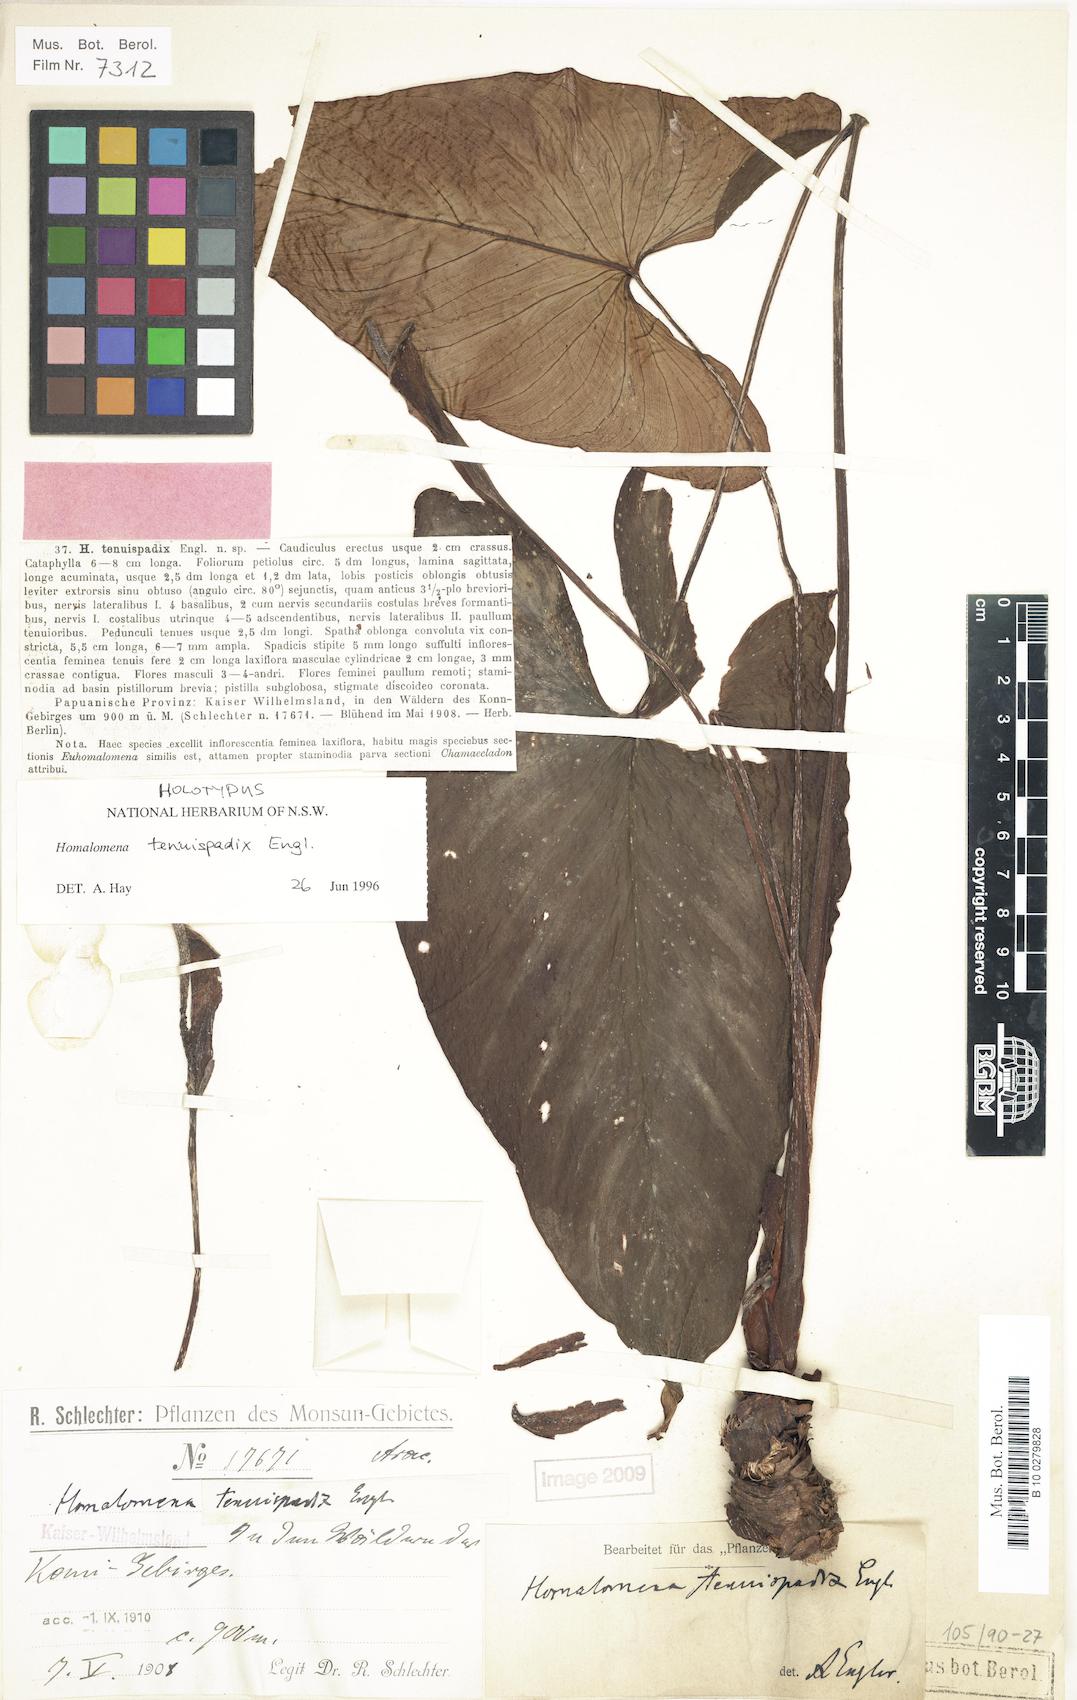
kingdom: Plantae
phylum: Tracheophyta
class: Liliopsida
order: Alismatales
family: Araceae
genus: Homalomena
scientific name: Homalomena tenuispadix
